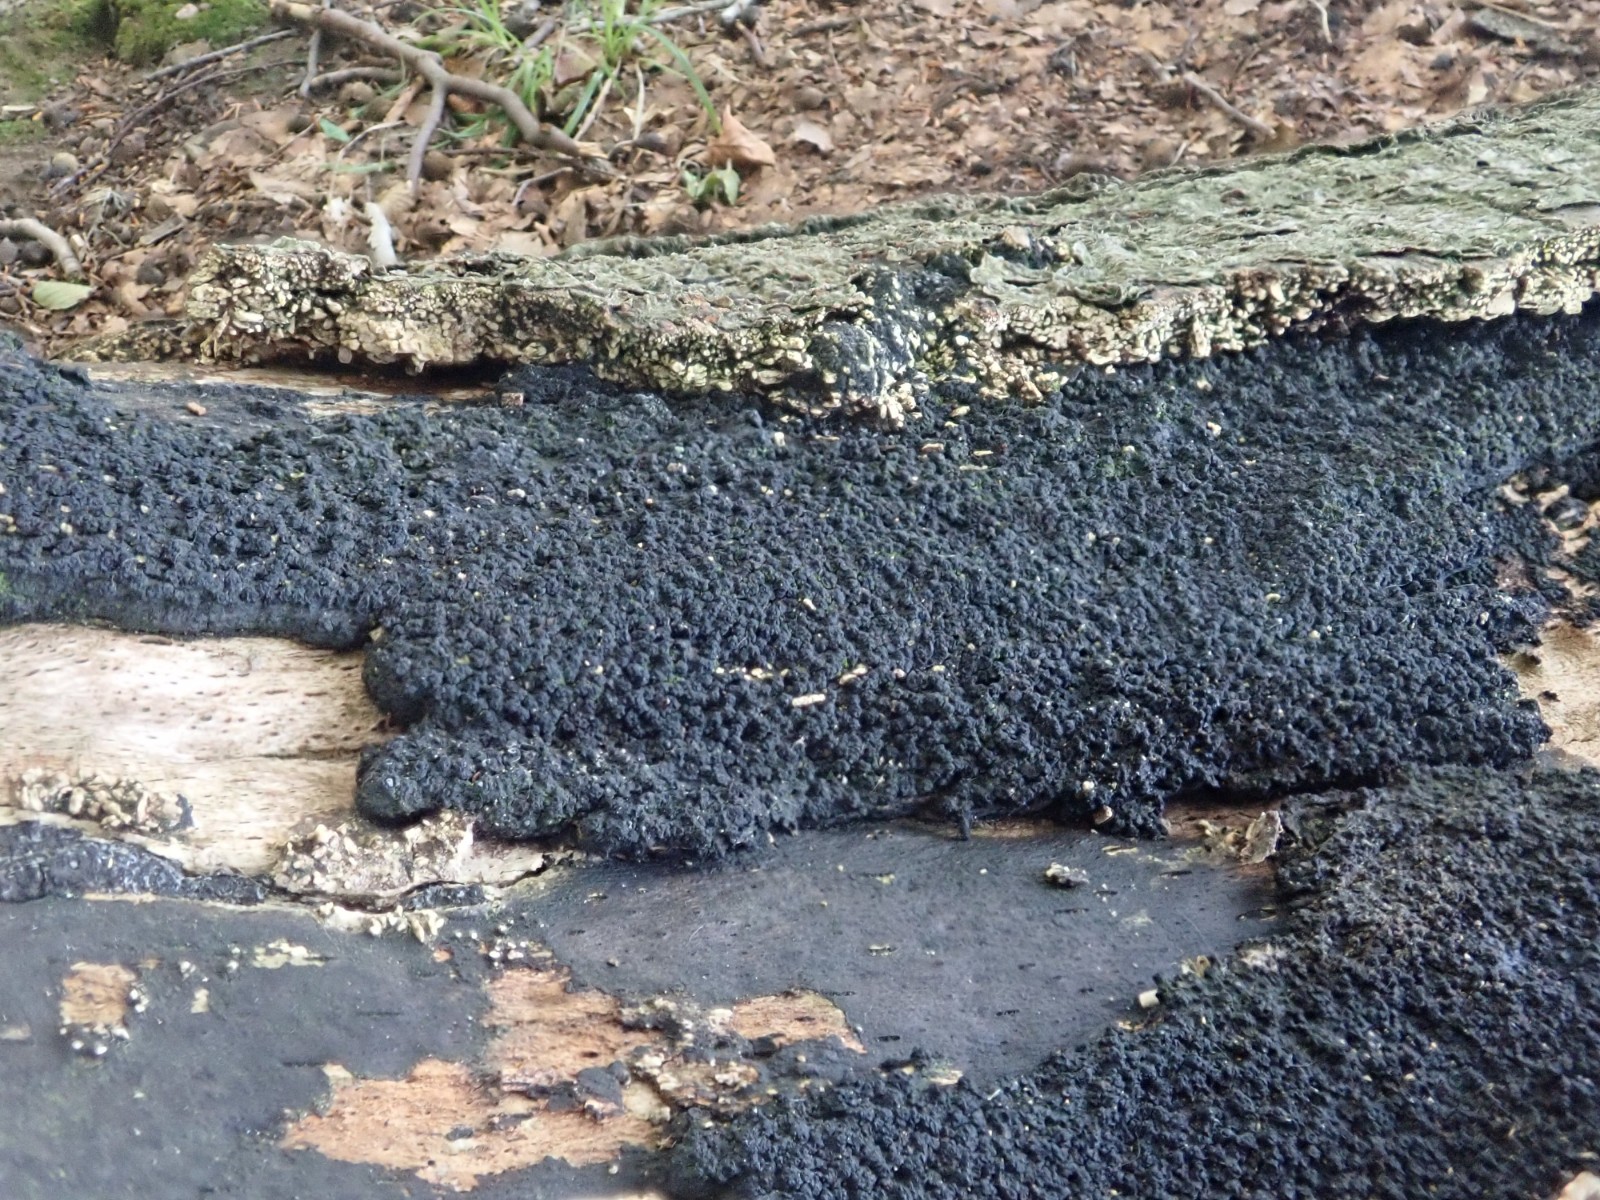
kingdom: Fungi
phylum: Ascomycota
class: Sordariomycetes
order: Xylariales
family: Diatrypaceae
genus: Eutypa
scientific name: Eutypa spinosa
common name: grov kulskorpe
